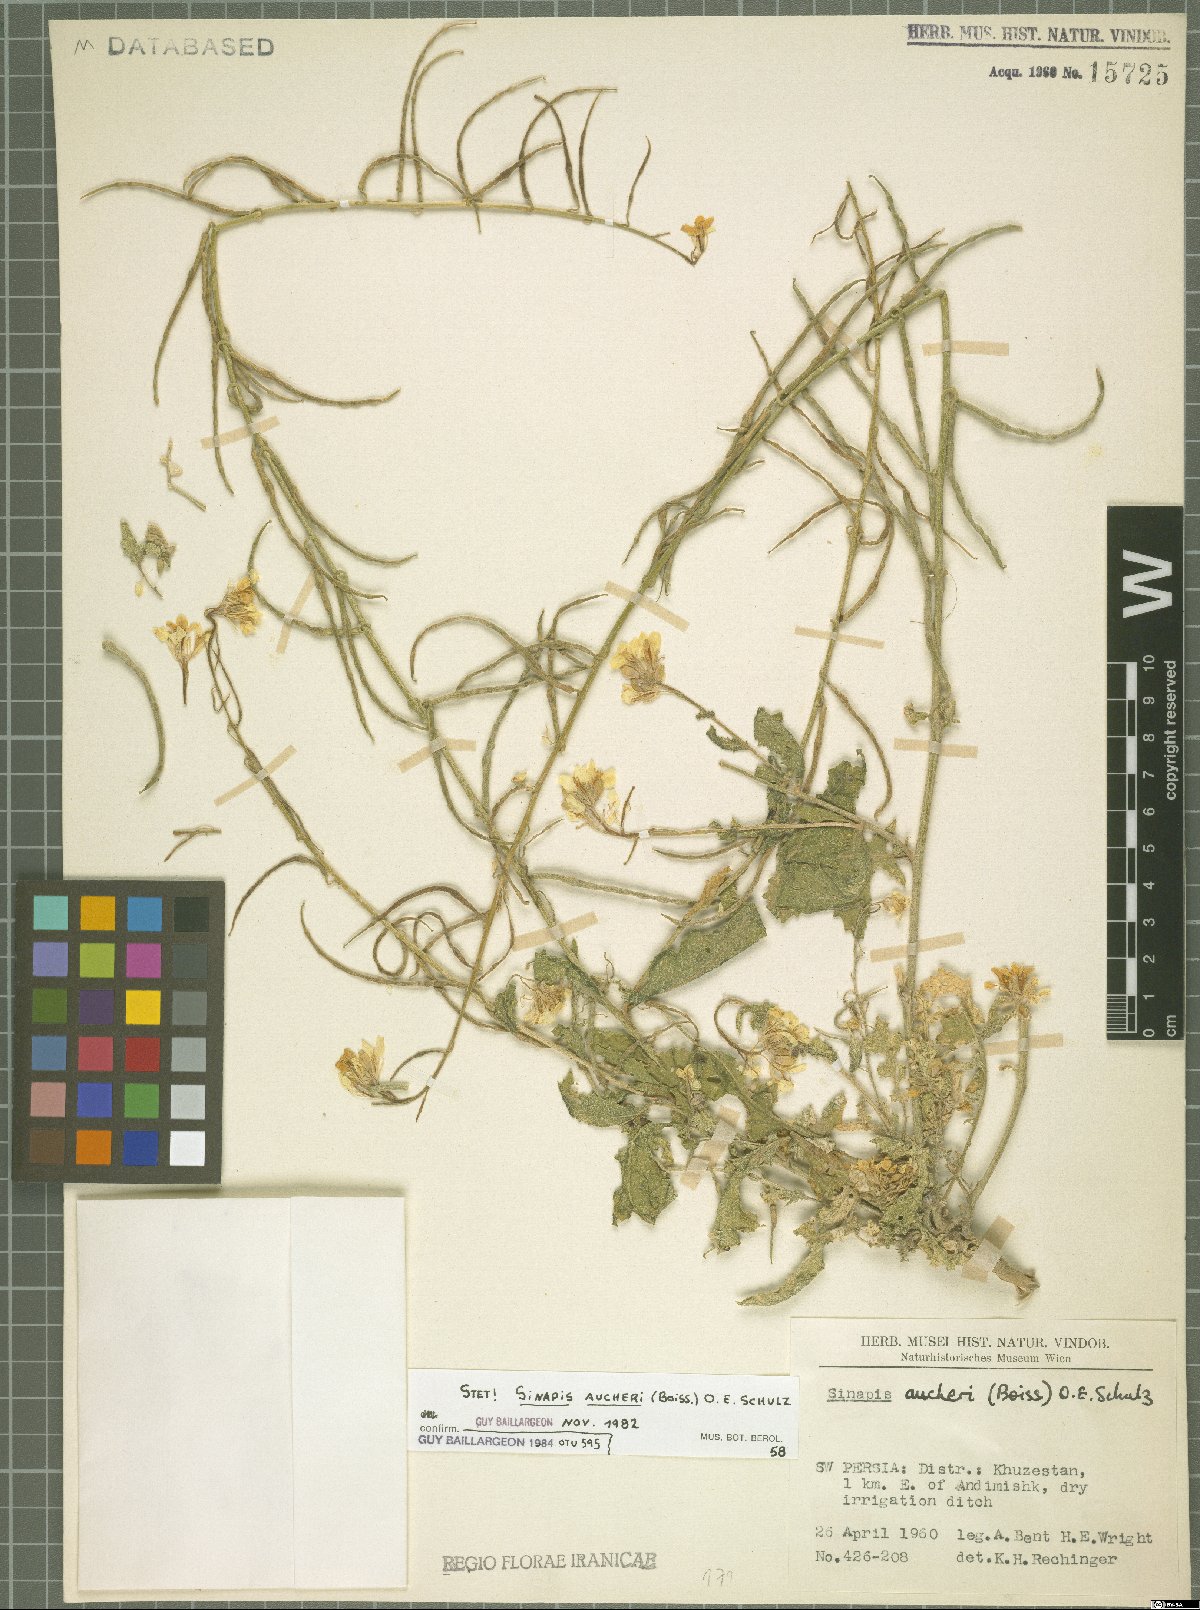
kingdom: Plantae
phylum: Tracheophyta
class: Magnoliopsida
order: Brassicales
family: Brassicaceae
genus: Brassica
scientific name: Brassica aucheri
